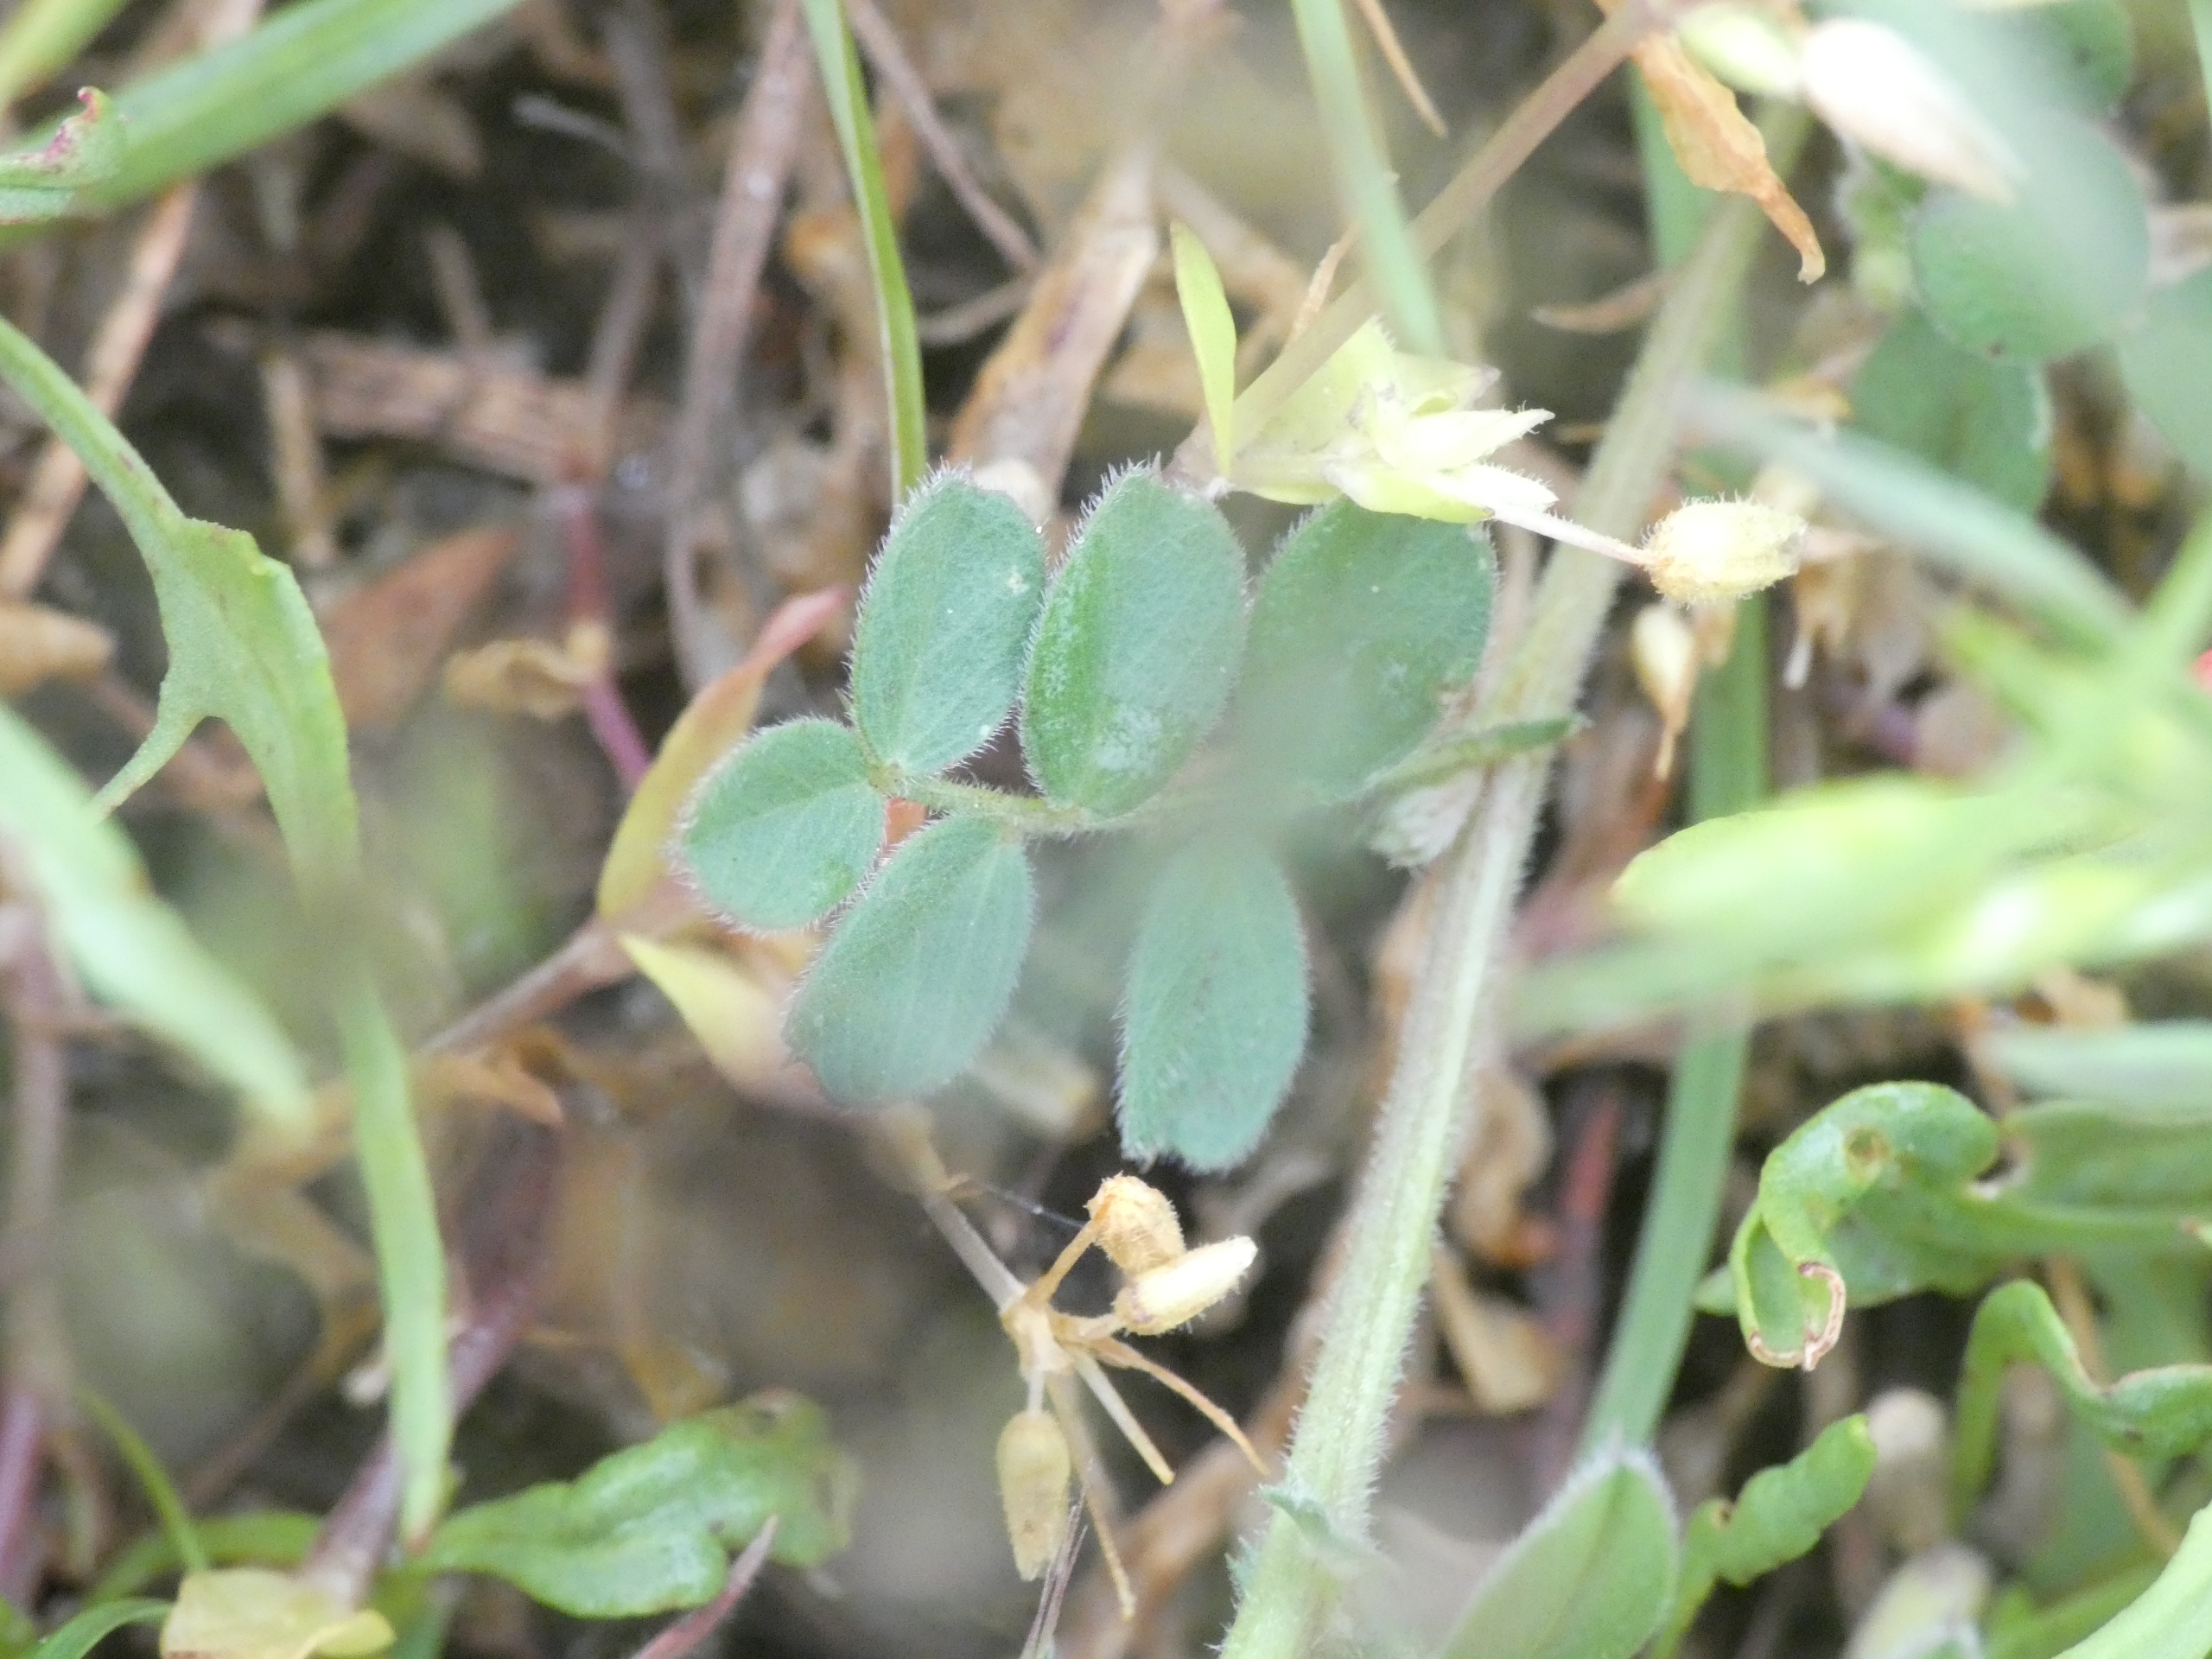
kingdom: Plantae
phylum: Tracheophyta
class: Magnoliopsida
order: Fabales
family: Fabaceae
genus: Vicia
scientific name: Vicia lathyroides
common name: Vår-vikke
